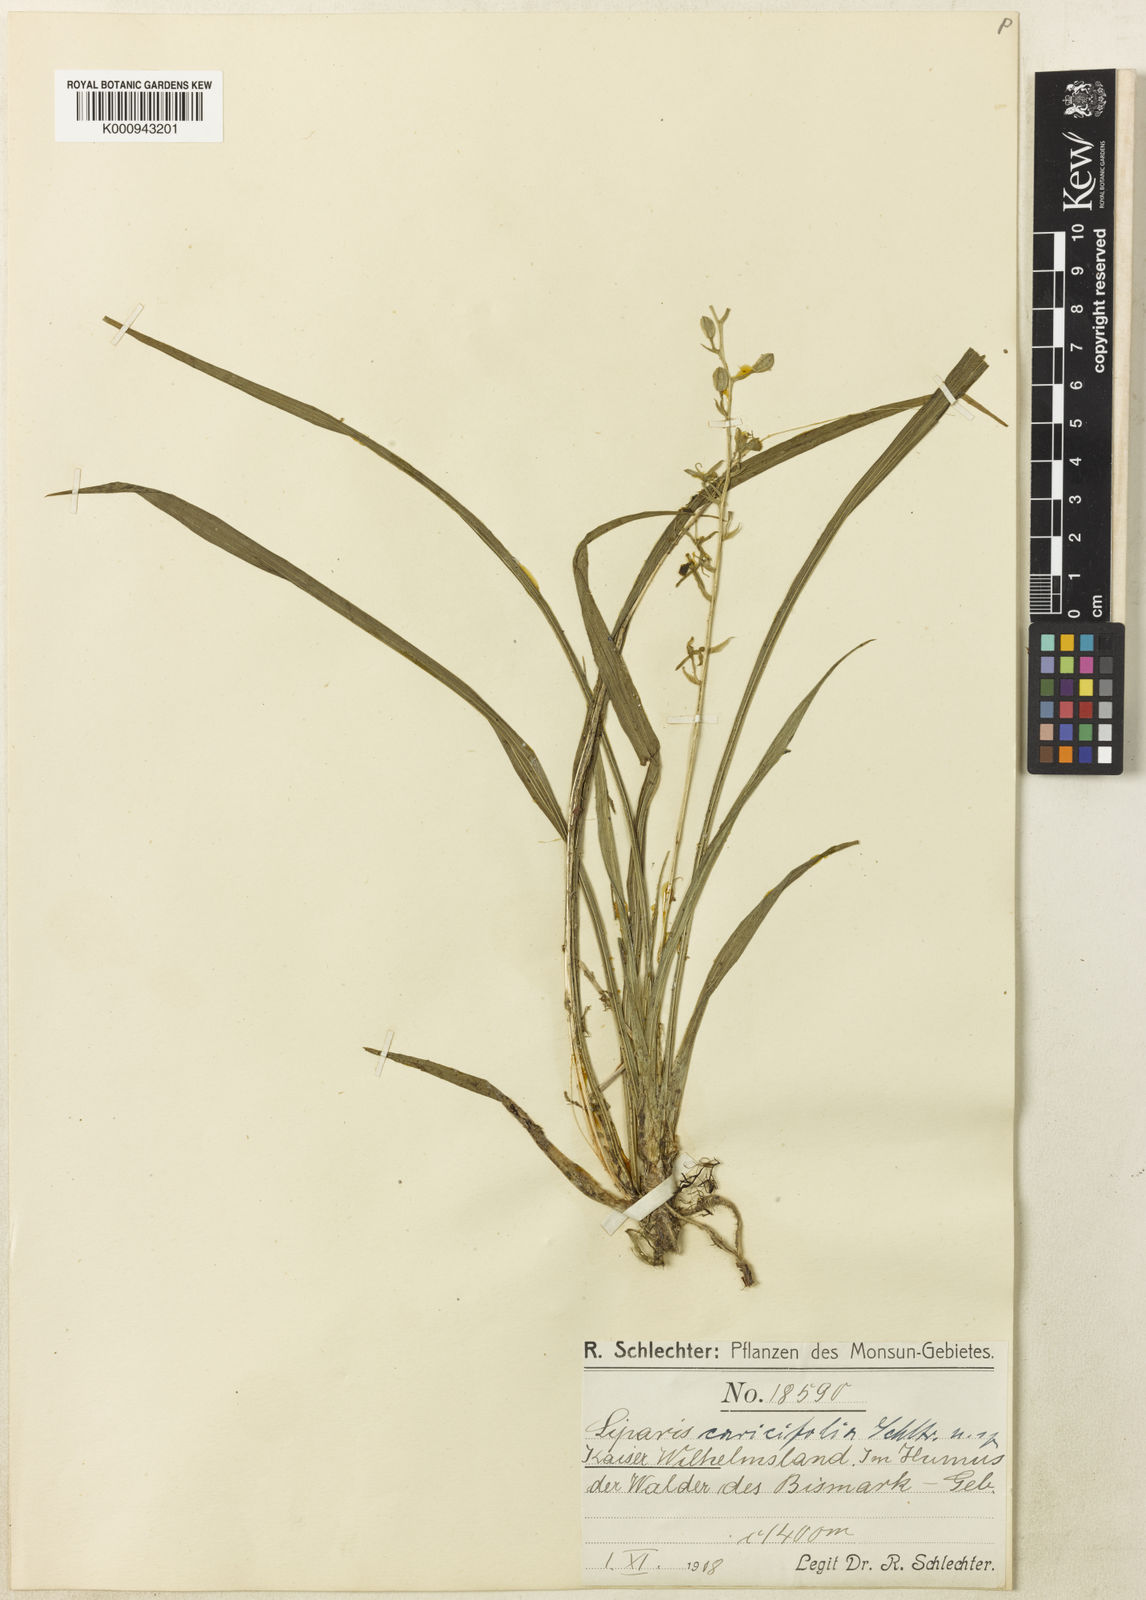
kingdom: Plantae
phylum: Tracheophyta
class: Liliopsida
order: Asparagales
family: Orchidaceae
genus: Liparis
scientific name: Liparis caricifolia
